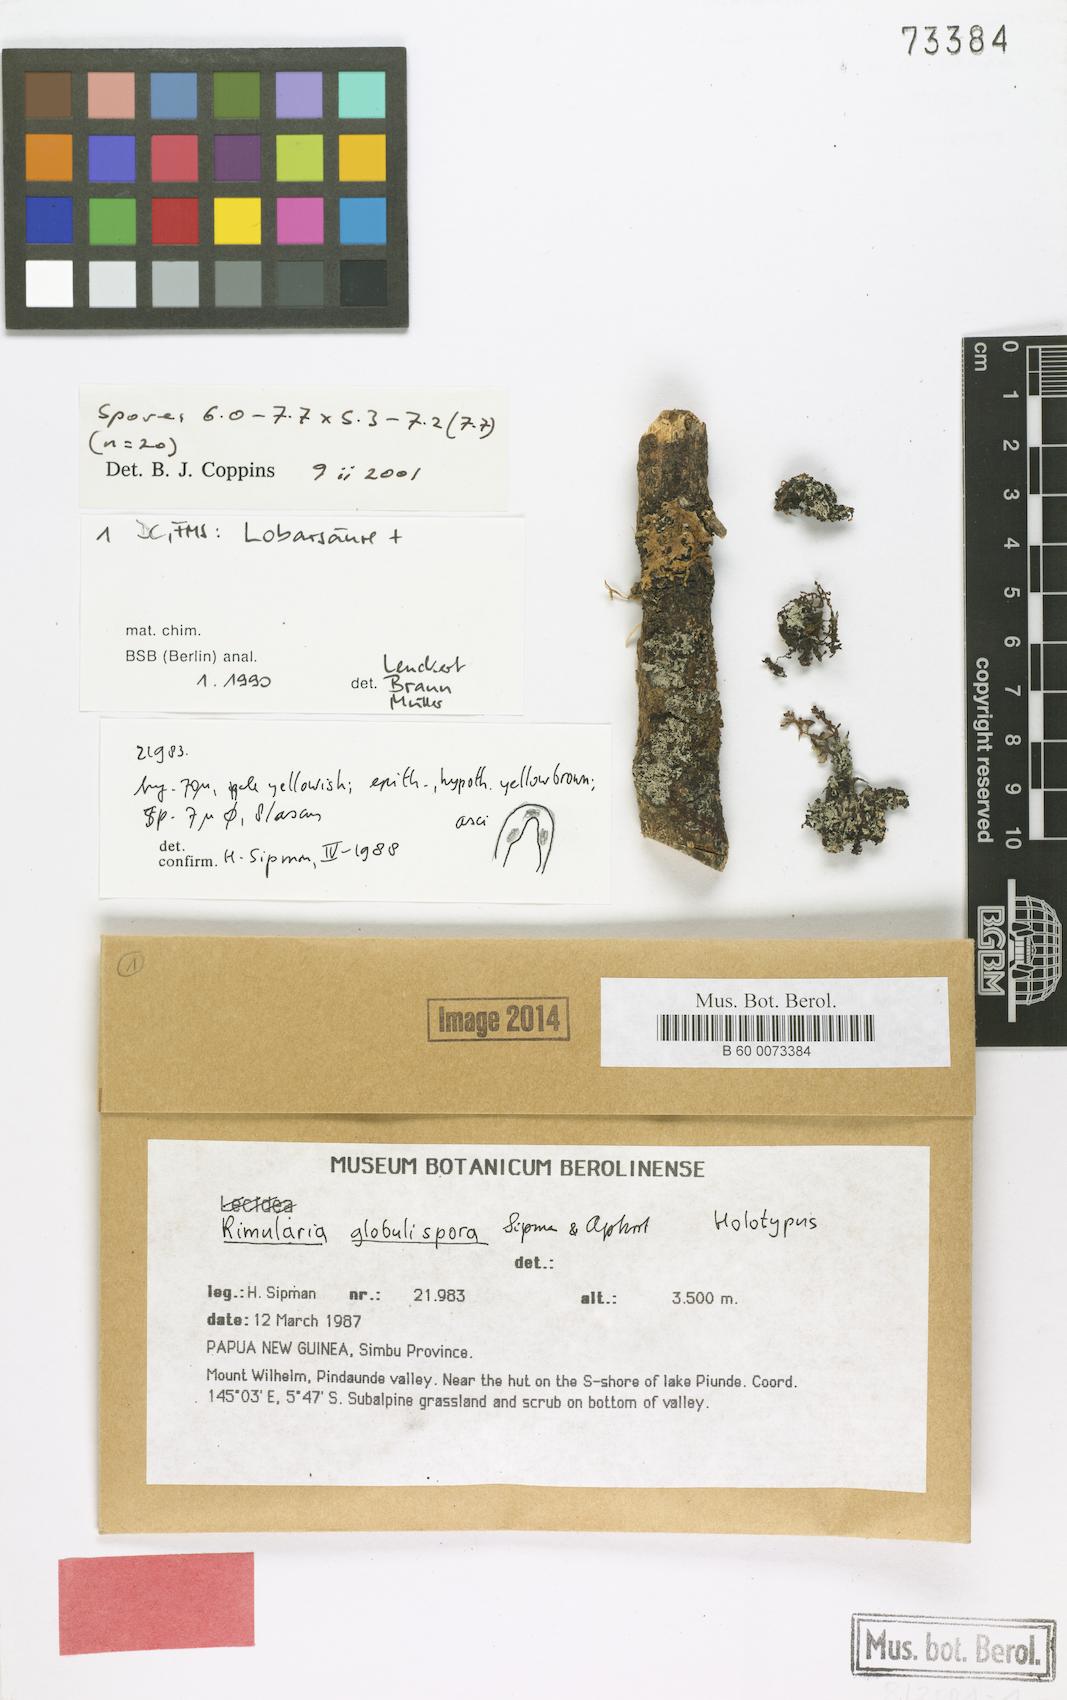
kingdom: Fungi
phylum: Ascomycota
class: Lecanoromycetes
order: Baeomycetales
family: Trapeliaceae
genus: Lambiella
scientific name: Lambiella globulispora
